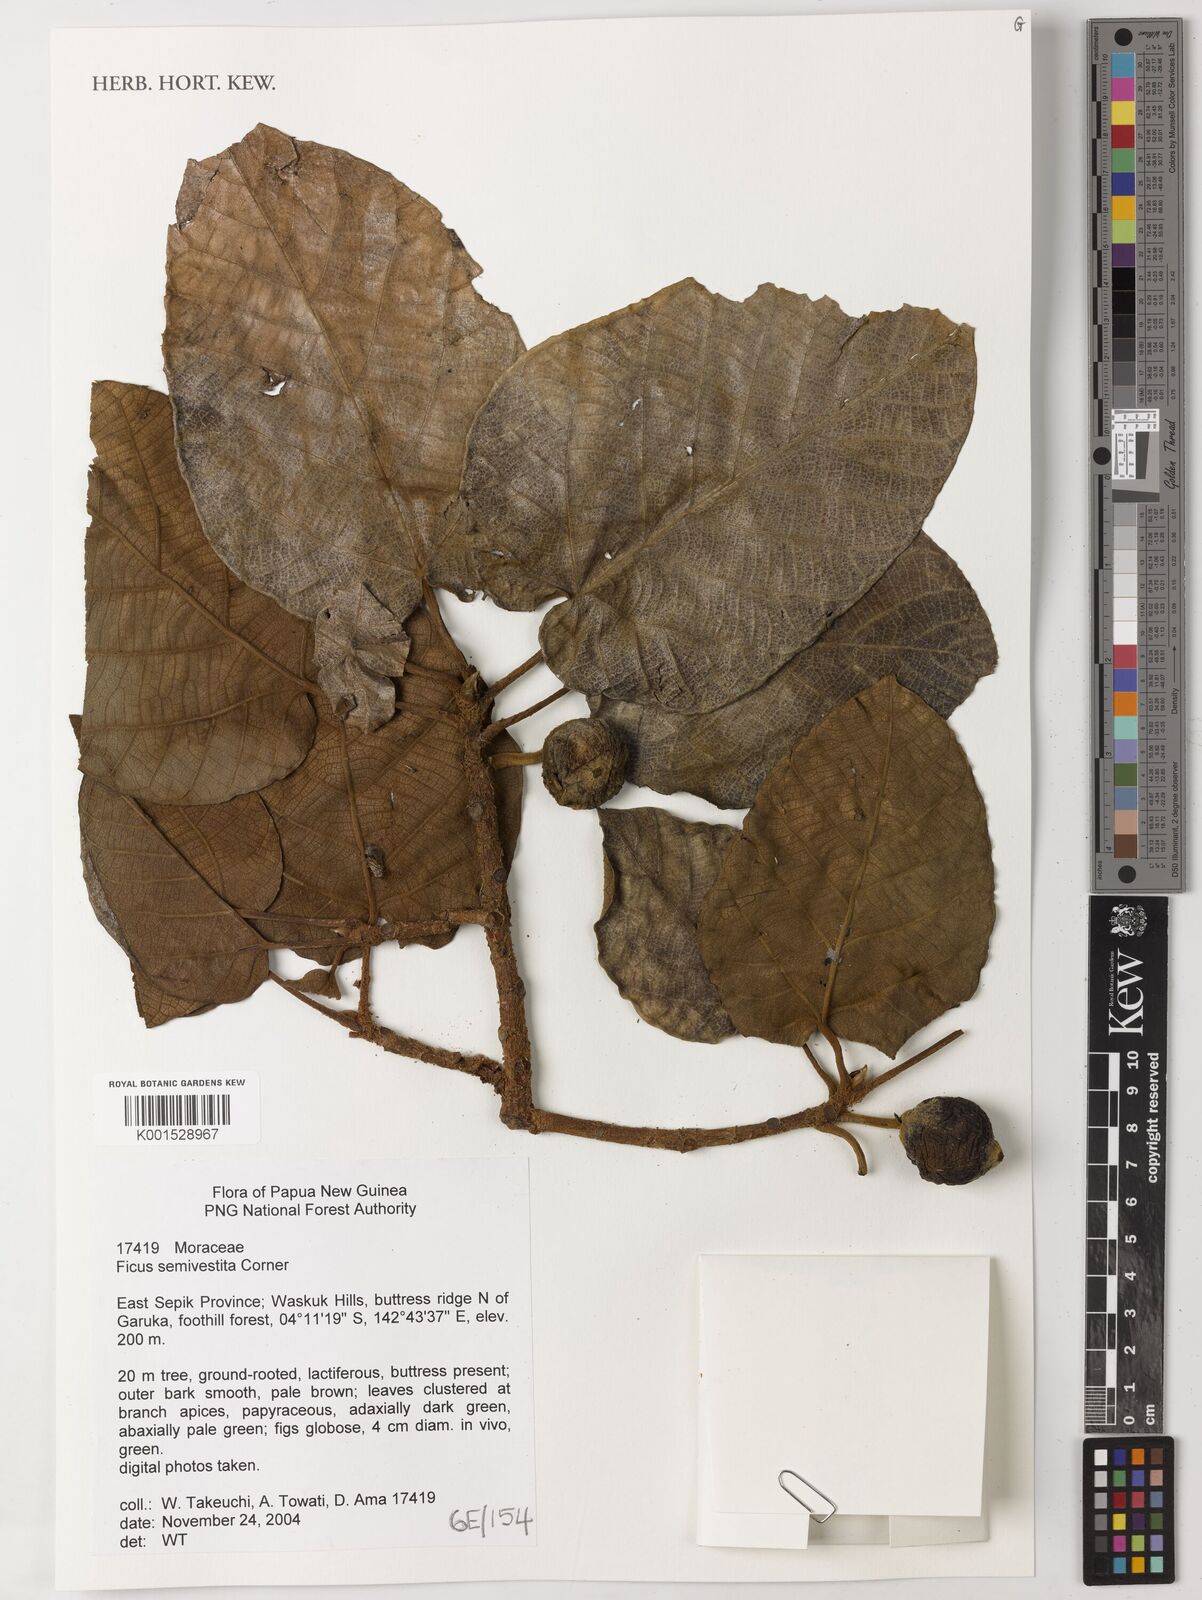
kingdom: Plantae
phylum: Tracheophyta
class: Magnoliopsida
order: Rosales
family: Moraceae
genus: Ficus
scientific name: Ficus semivestita
